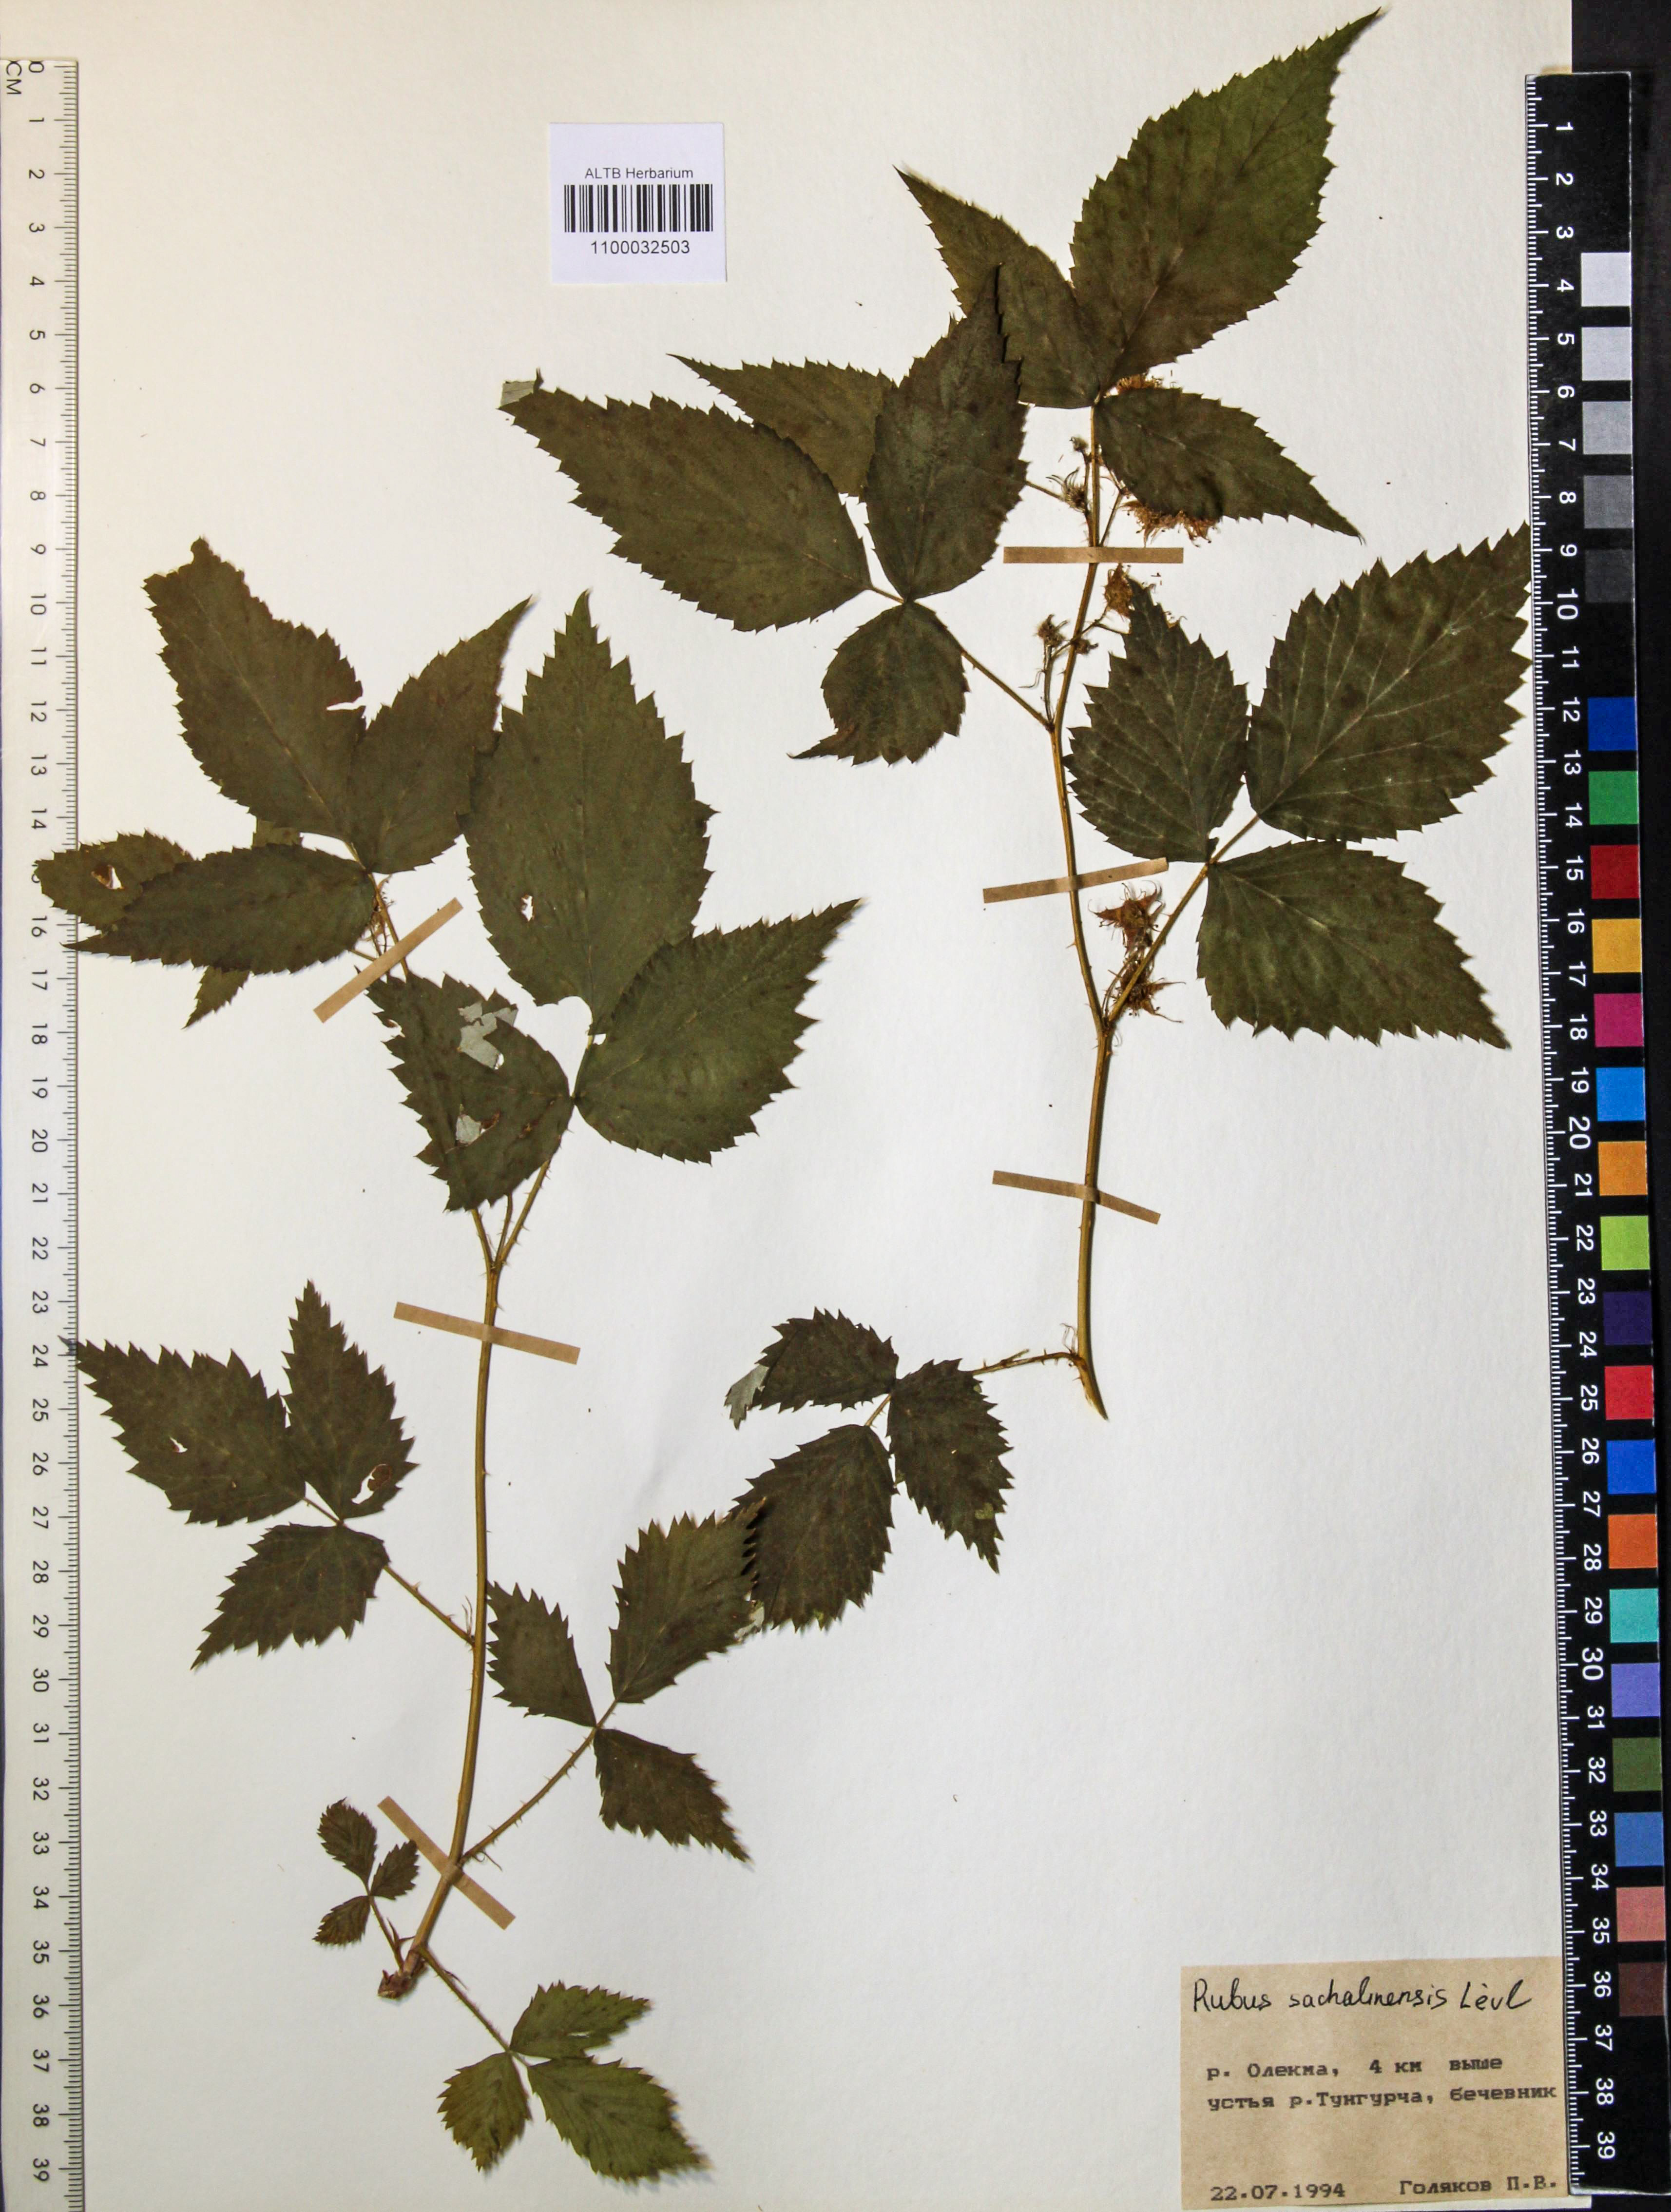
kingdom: Plantae
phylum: Tracheophyta
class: Magnoliopsida
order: Rosales
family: Rosaceae
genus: Rubus
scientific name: Rubus sachalinensis
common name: Red raspberry
